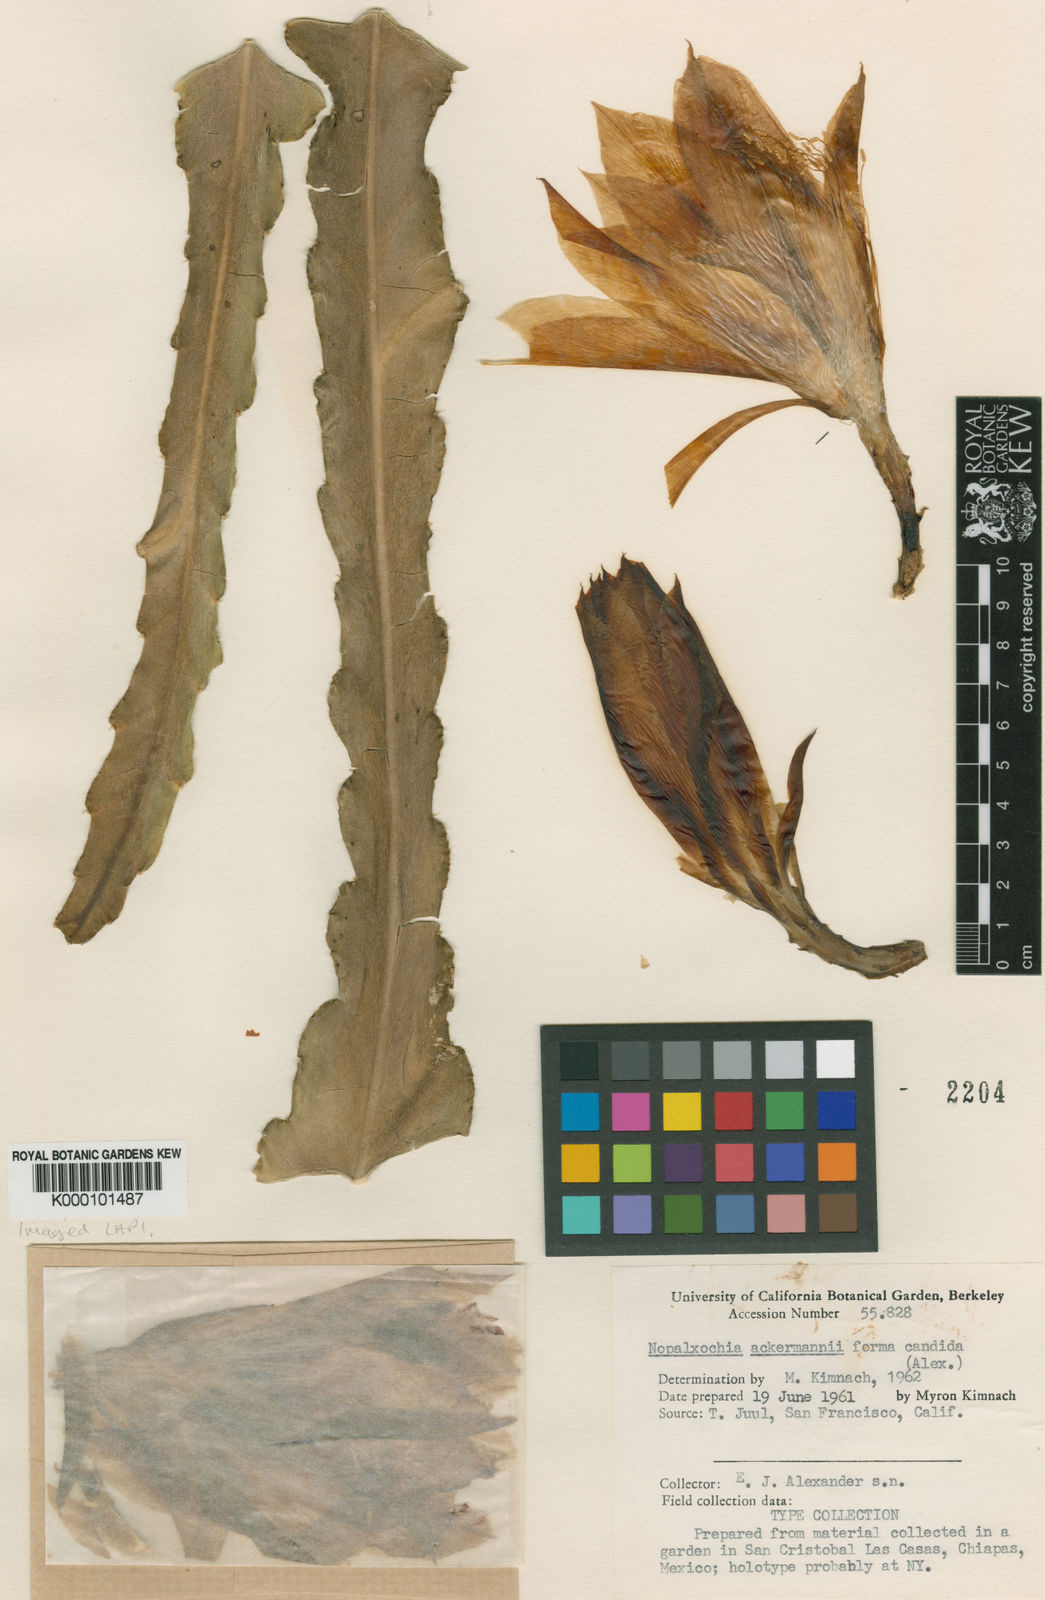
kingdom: Plantae
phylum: Tracheophyta
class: Magnoliopsida
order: Caryophyllales
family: Cactaceae
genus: Disocactus
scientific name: Disocactus ackermannii
